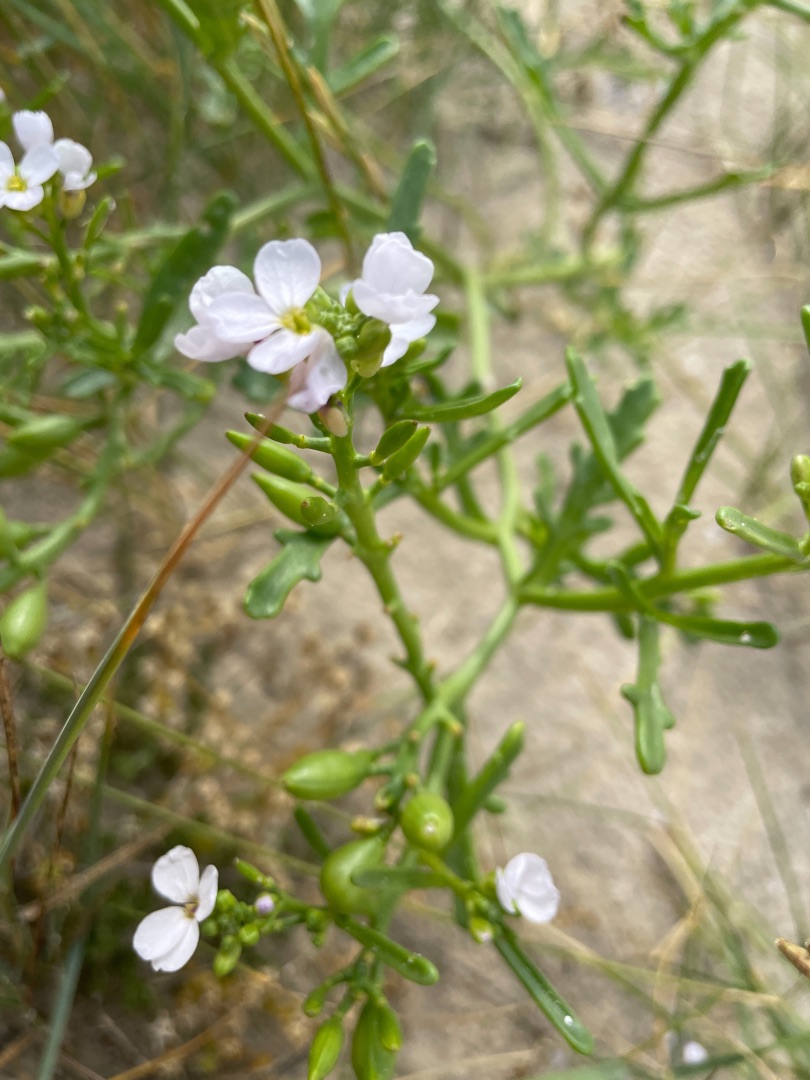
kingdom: Plantae
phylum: Tracheophyta
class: Magnoliopsida
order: Brassicales
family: Brassicaceae
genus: Cakile
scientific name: Cakile maritima
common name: Strandsennep
